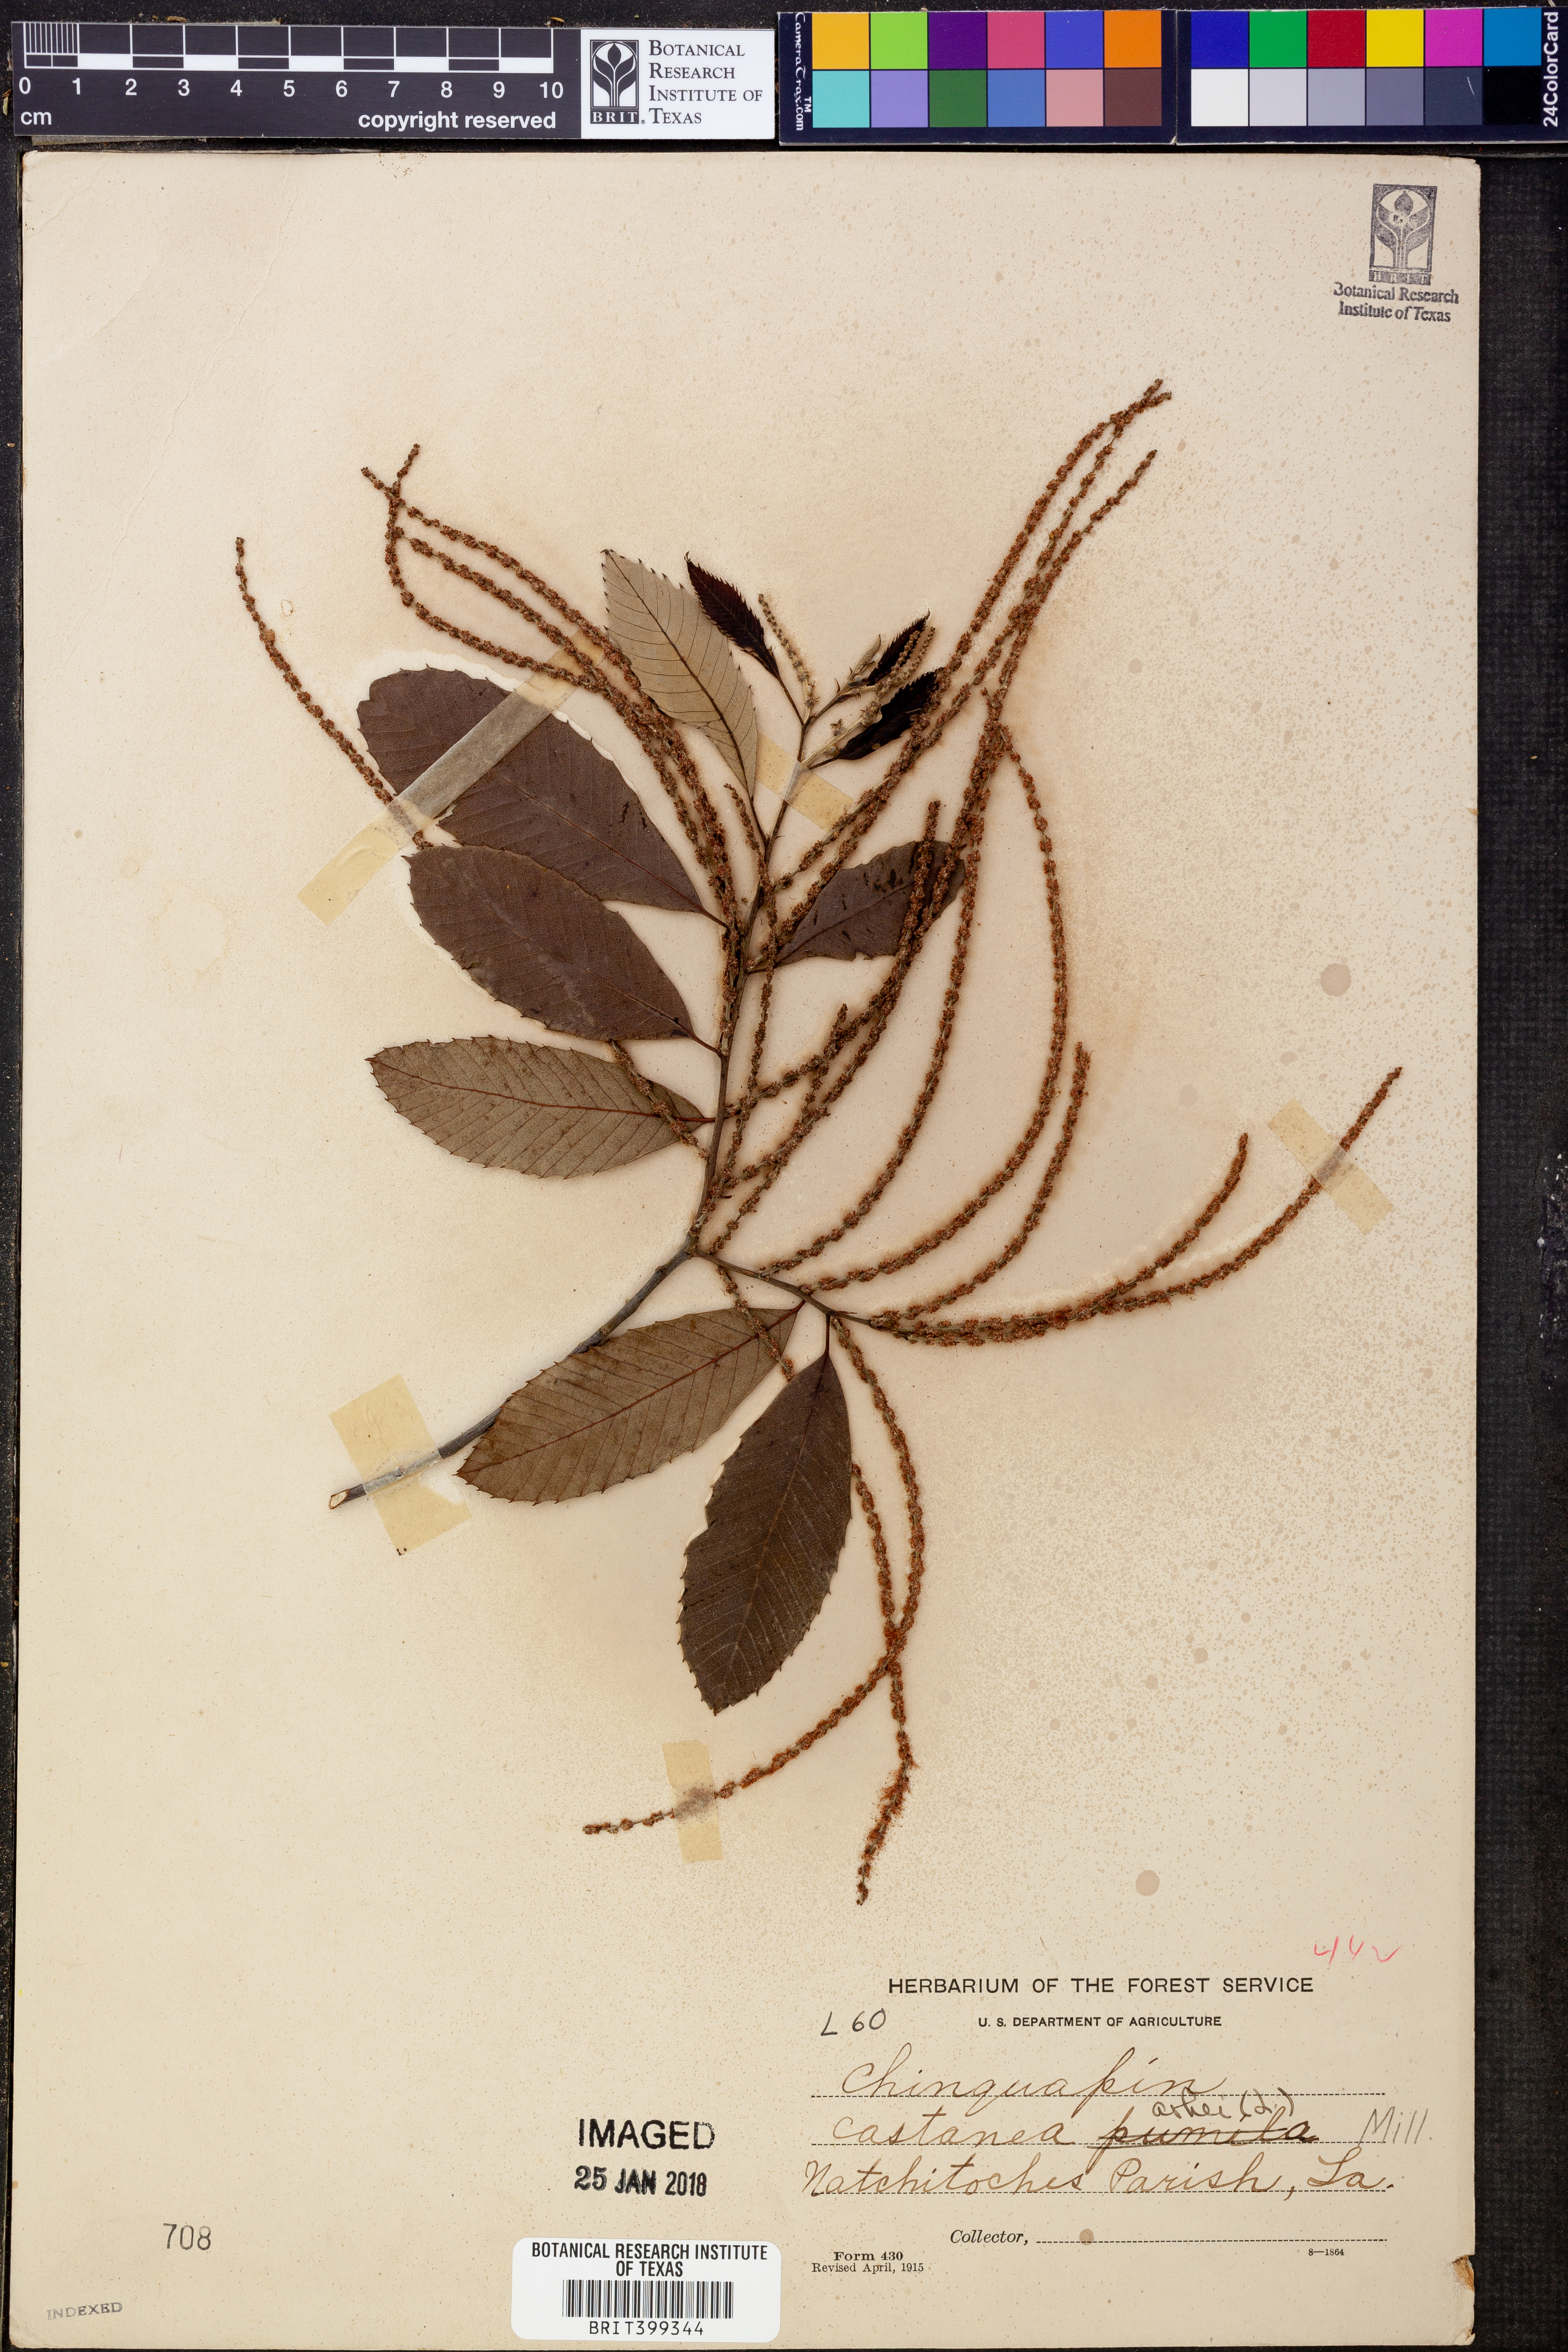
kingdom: Plantae
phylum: Tracheophyta
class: Magnoliopsida
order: Fagales
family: Fagaceae
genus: Castanea
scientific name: Castanea pumila
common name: Chinkapin
